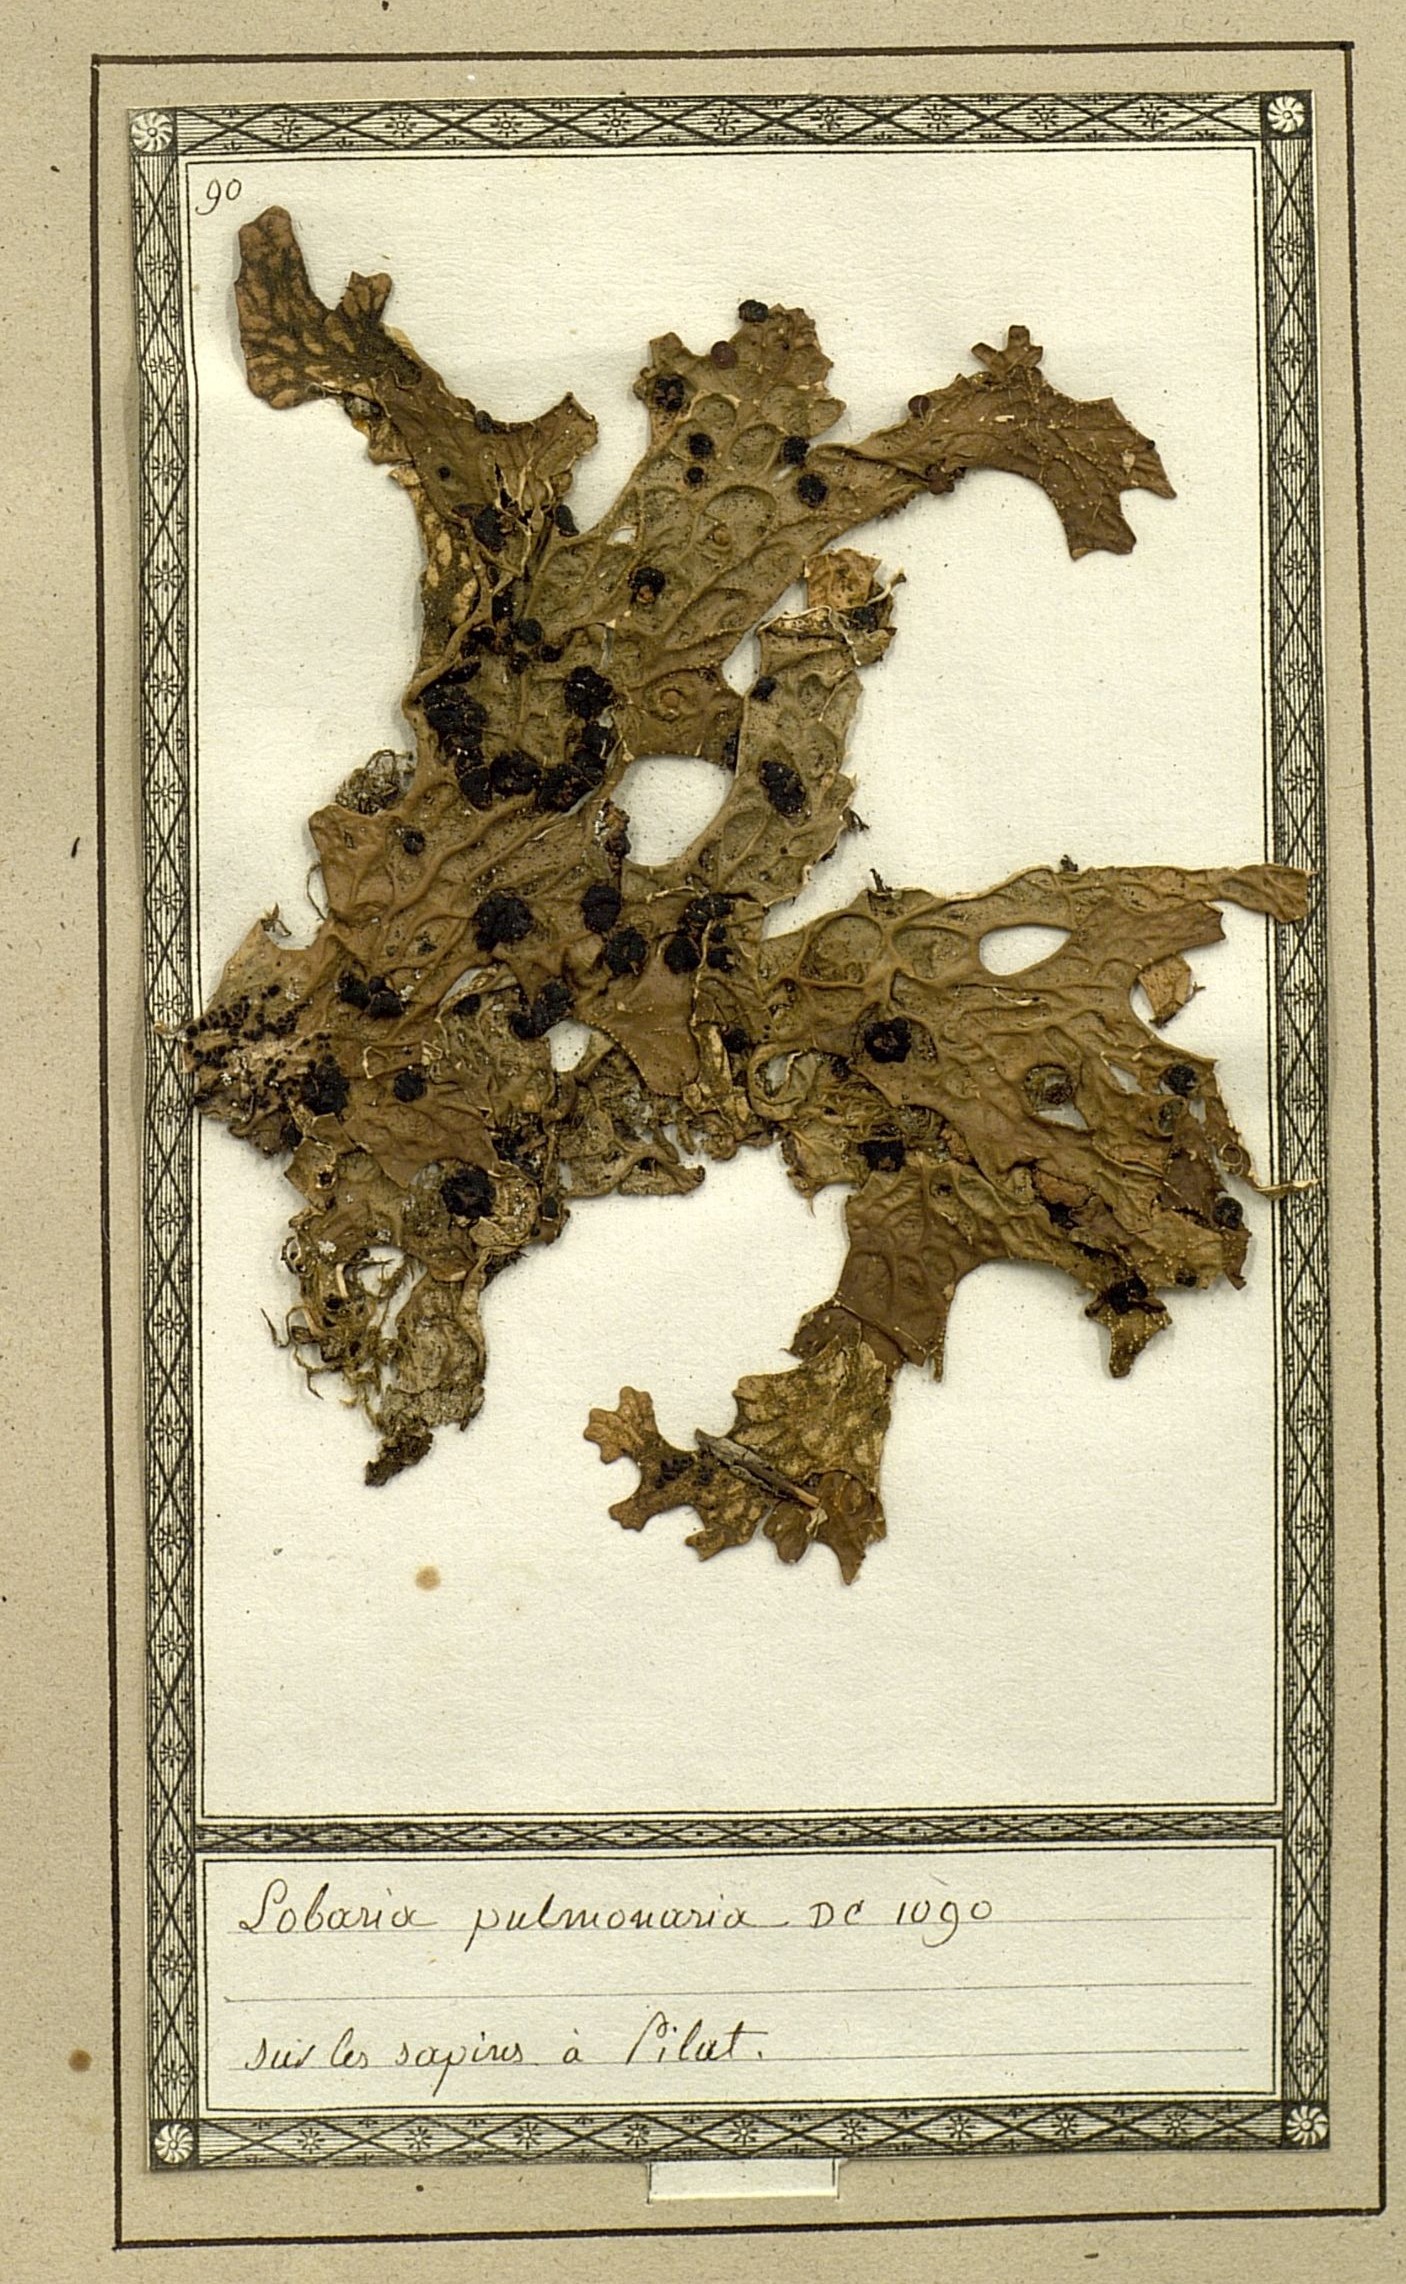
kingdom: Fungi
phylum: Ascomycota
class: Lecanoromycetes
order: Peltigerales
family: Lobariaceae
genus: Lobaria
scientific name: Lobaria pulmonaria
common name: Lungwort
